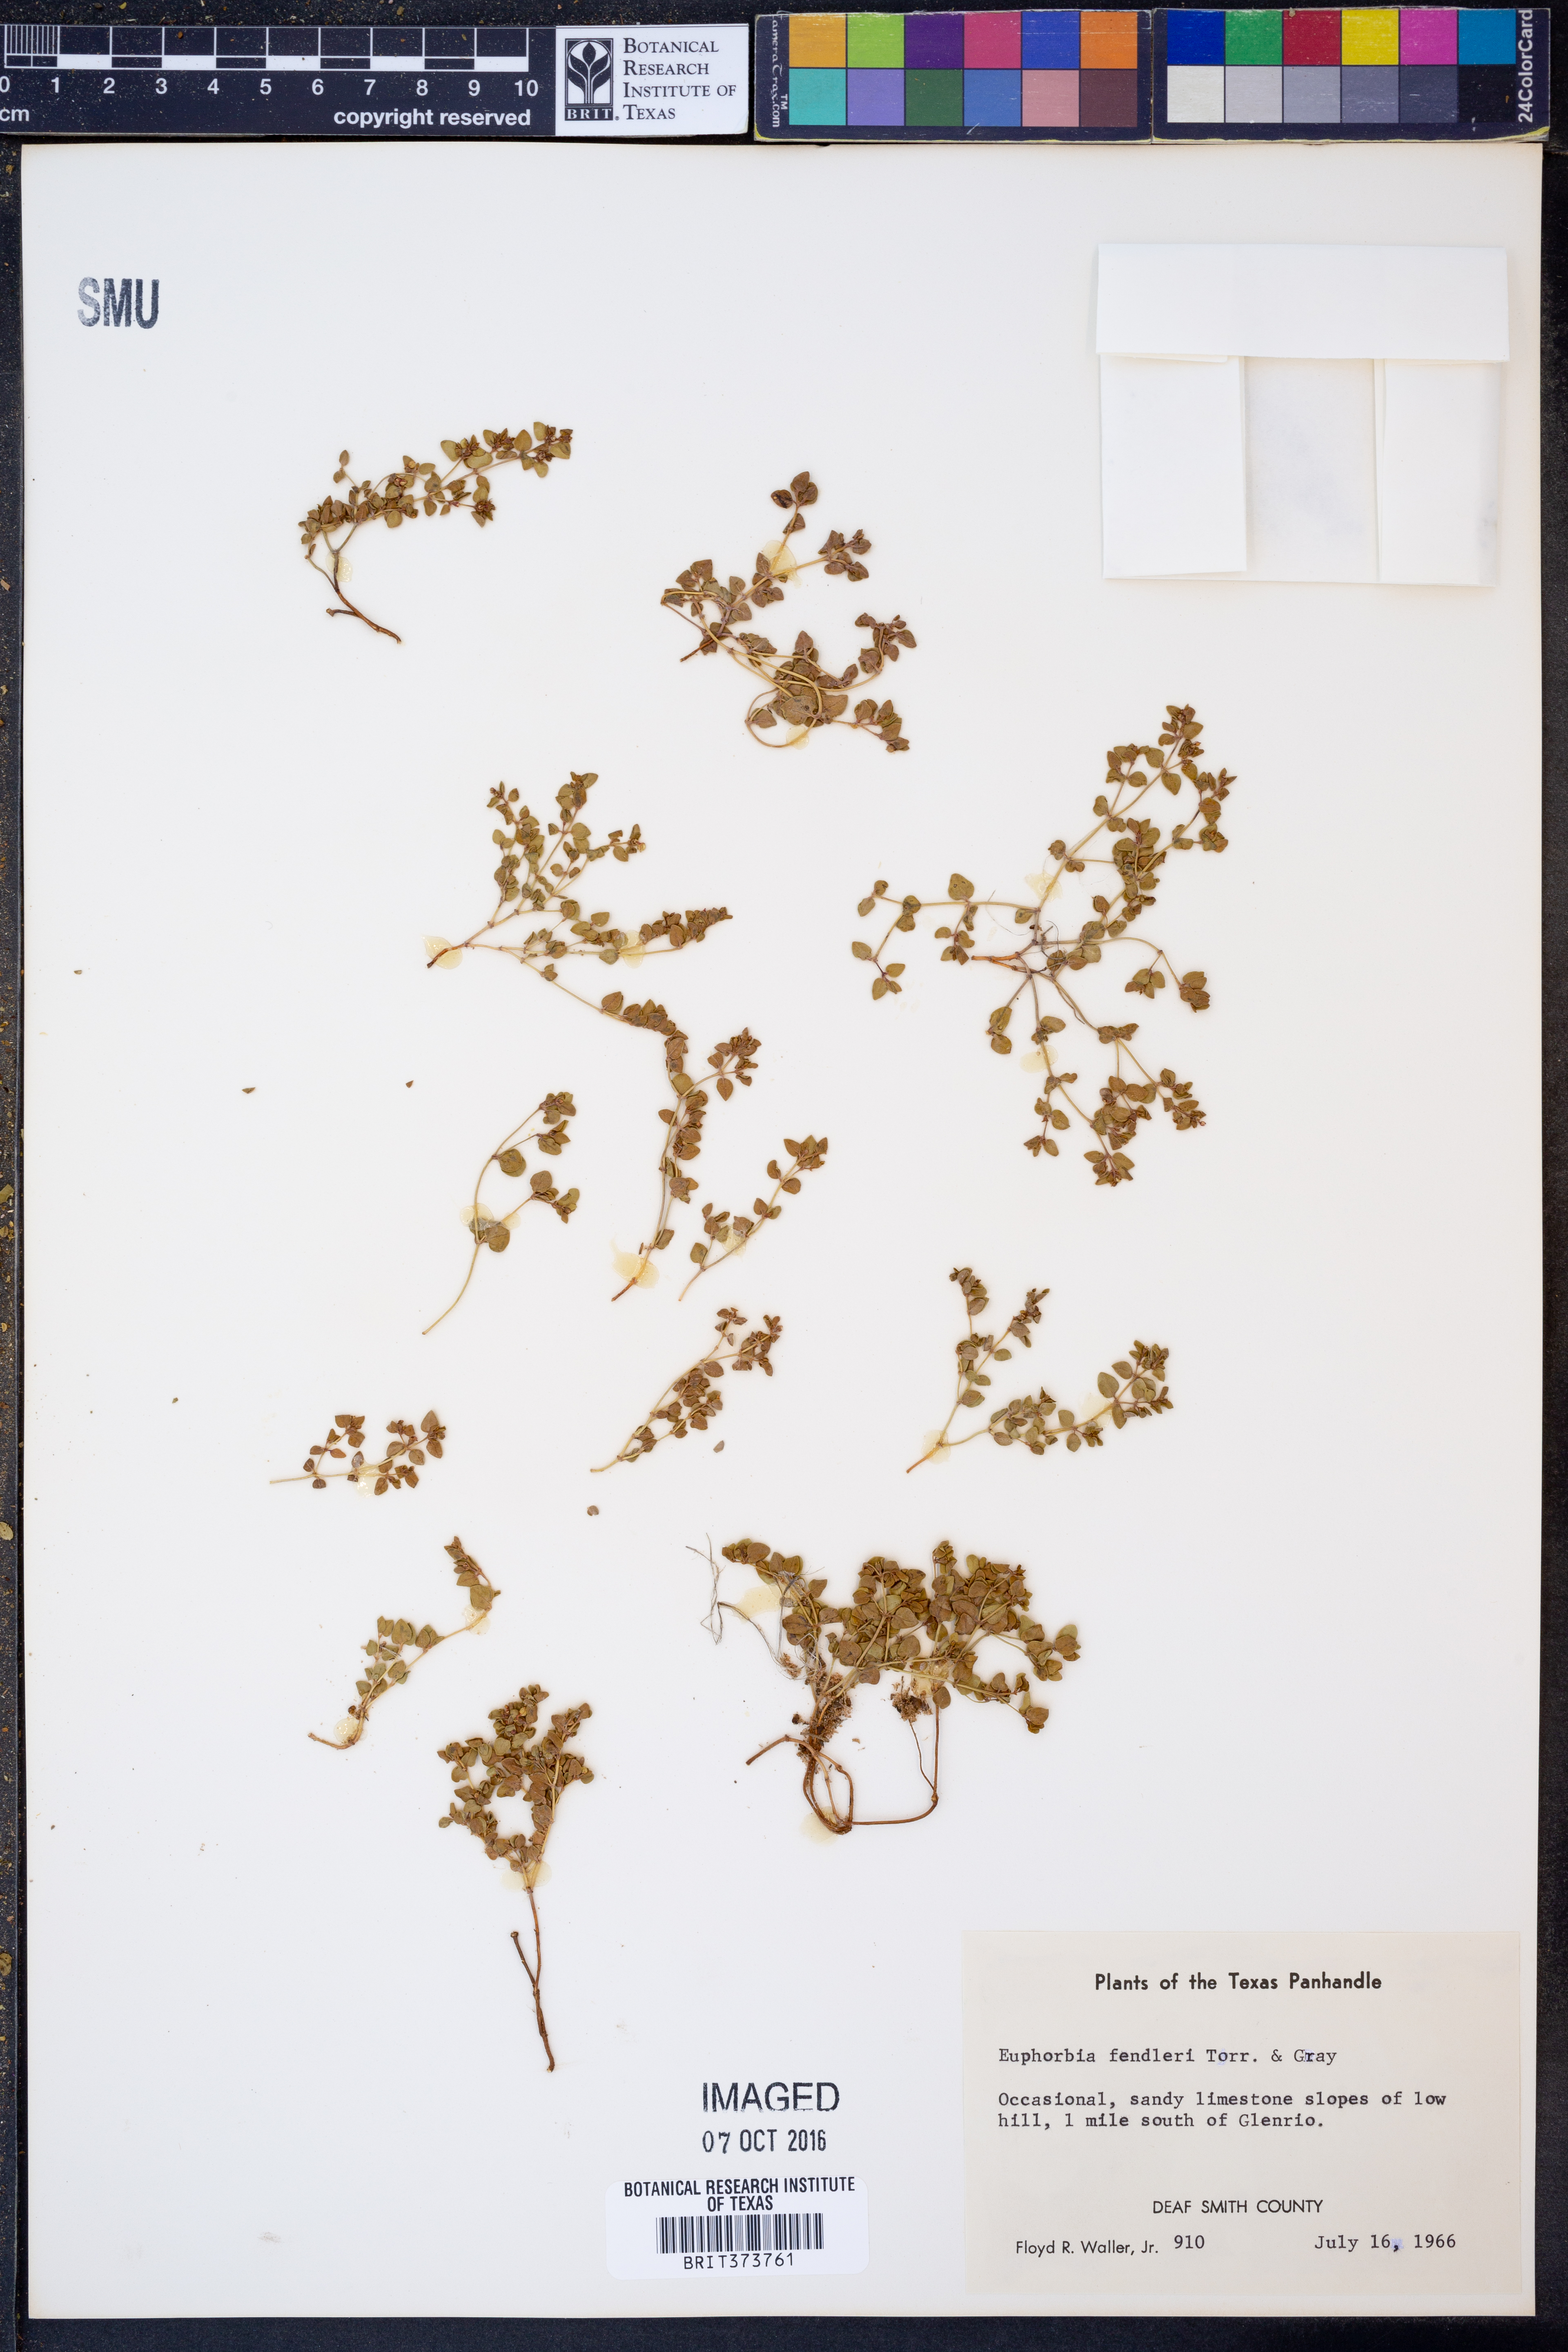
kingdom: Plantae
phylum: Tracheophyta
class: Magnoliopsida
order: Malpighiales
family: Euphorbiaceae
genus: Euphorbia
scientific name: Euphorbia fendleri
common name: Fendler's euphorbia
